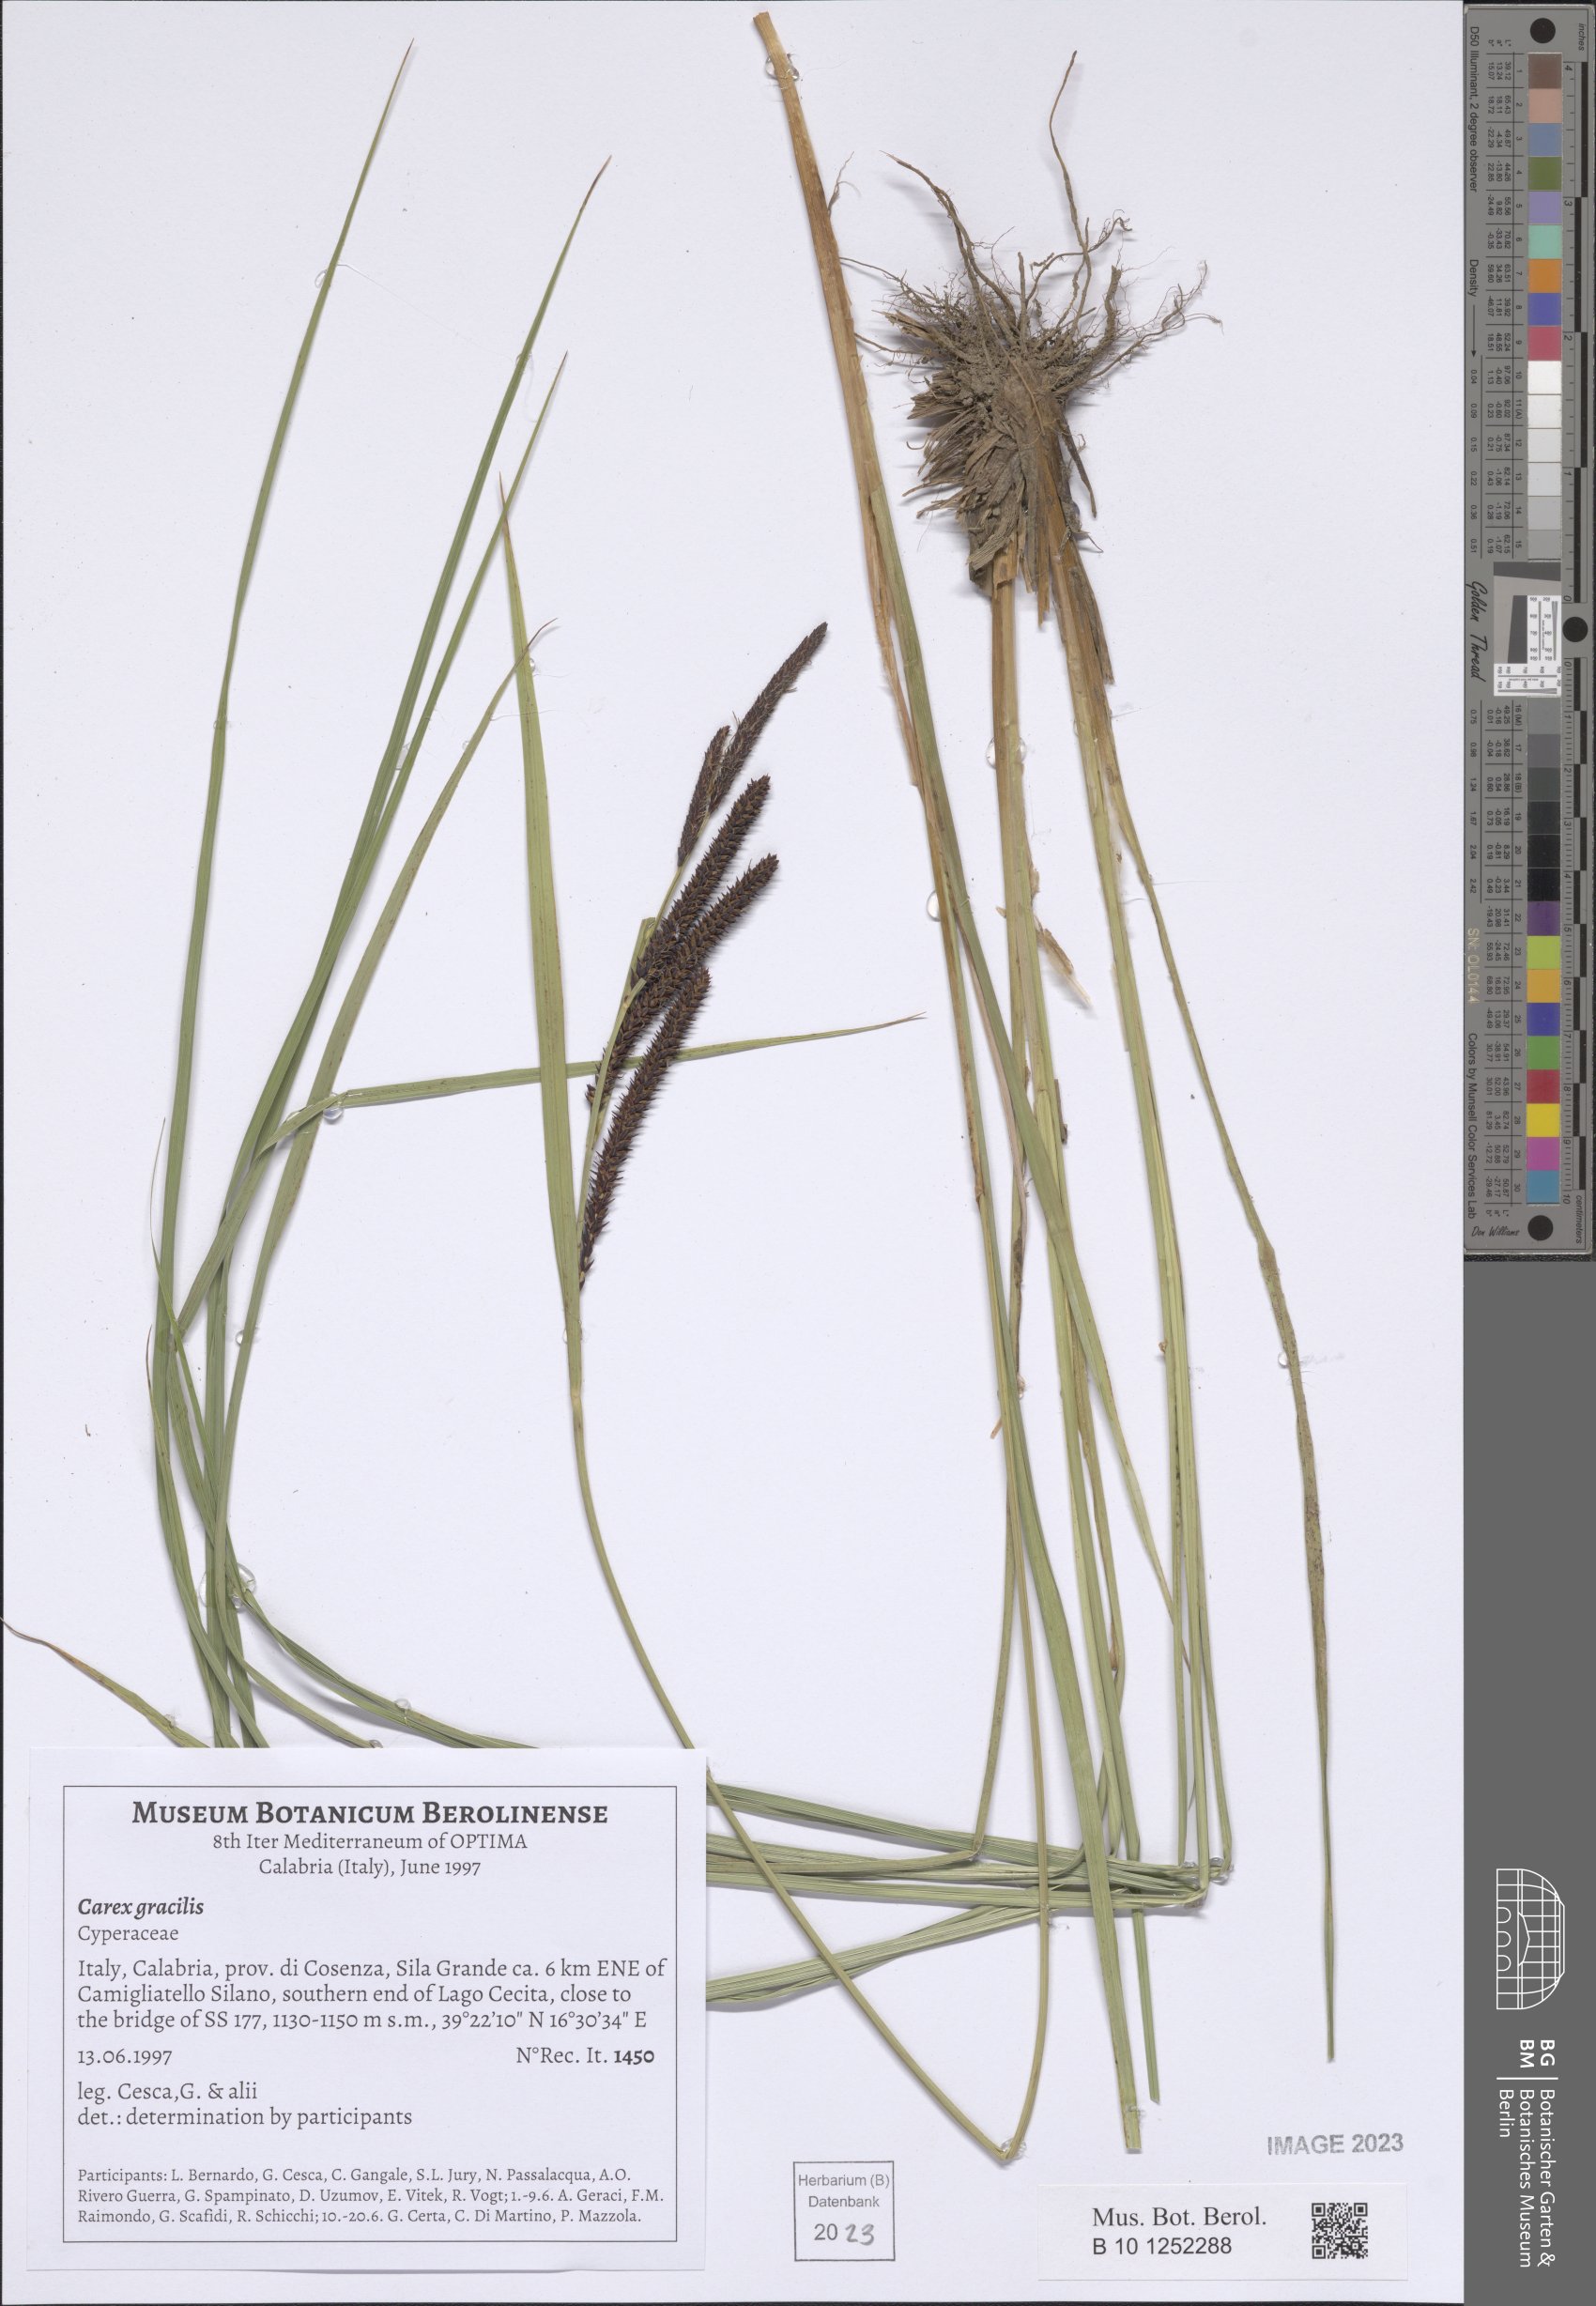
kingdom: Plantae
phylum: Tracheophyta
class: Liliopsida
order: Poales
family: Cyperaceae
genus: Carex
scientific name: Carex acuta
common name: Slender tufted-sedge
